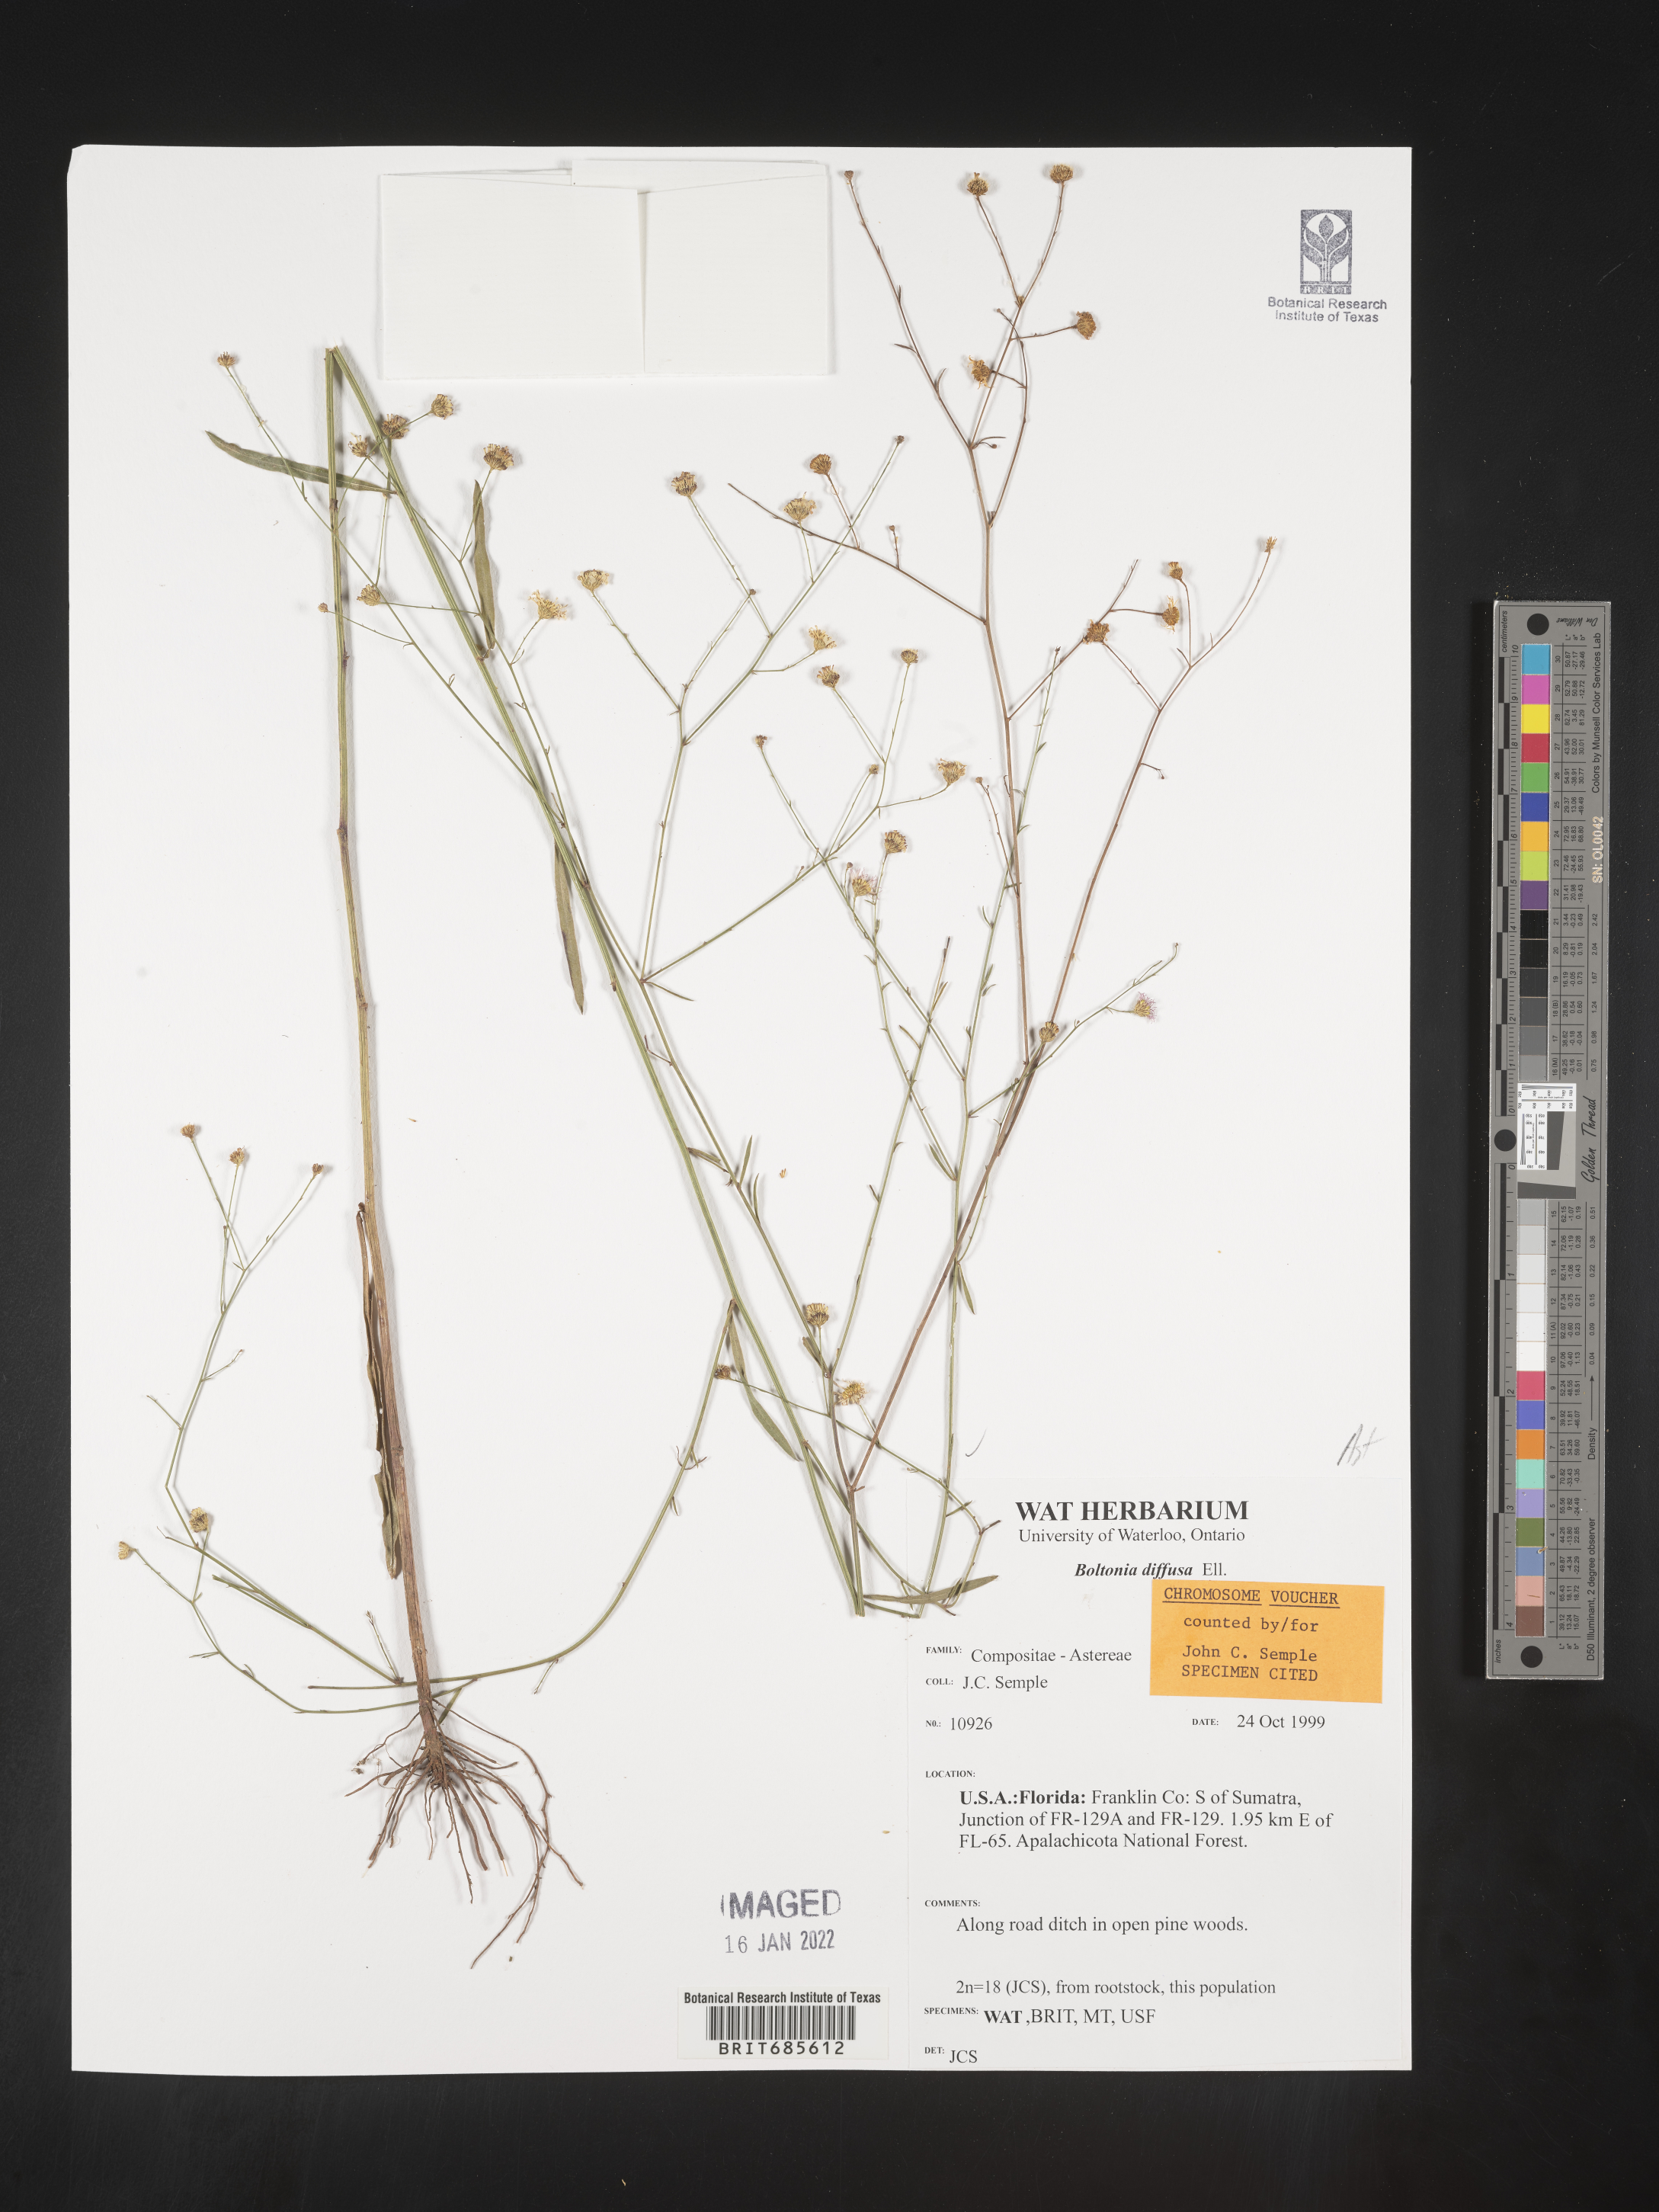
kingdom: Plantae
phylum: Tracheophyta
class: Magnoliopsida
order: Asterales
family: Asteraceae
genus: Boltonia
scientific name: Boltonia diffusa
